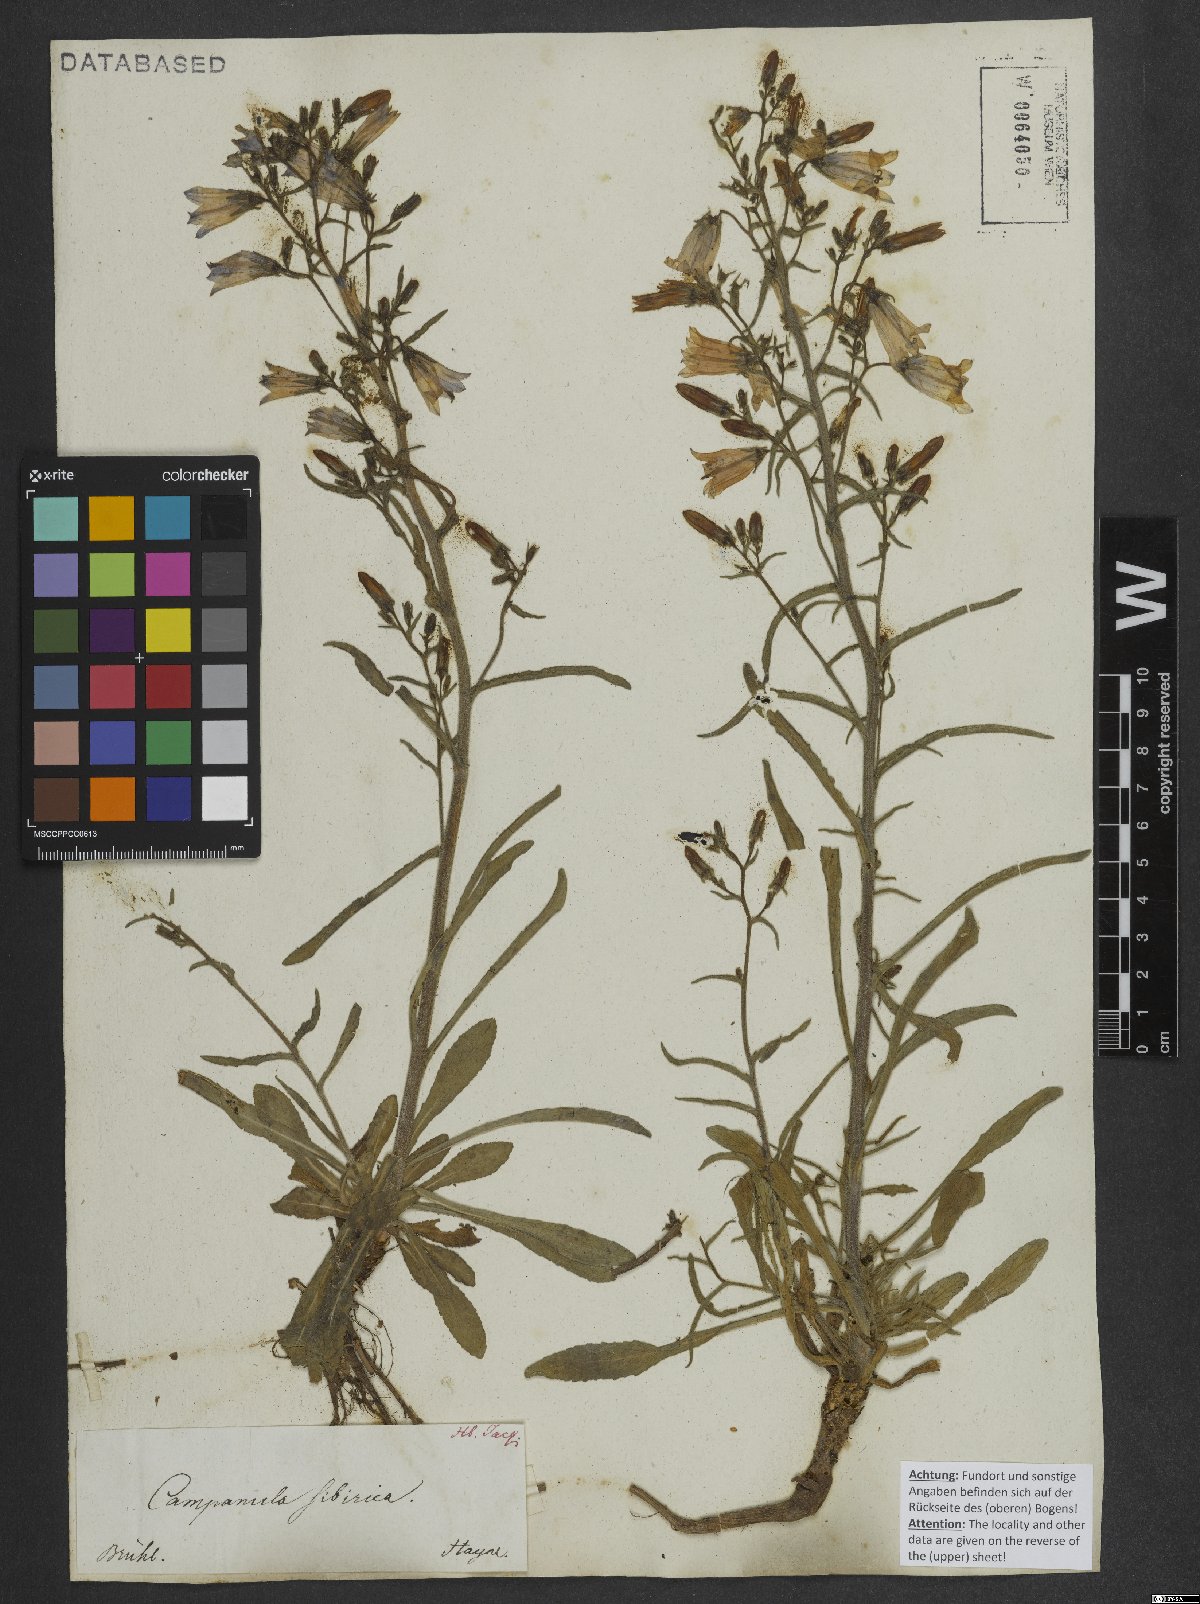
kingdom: Plantae
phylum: Tracheophyta
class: Magnoliopsida
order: Asterales
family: Campanulaceae
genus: Campanula
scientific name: Campanula sibirica
